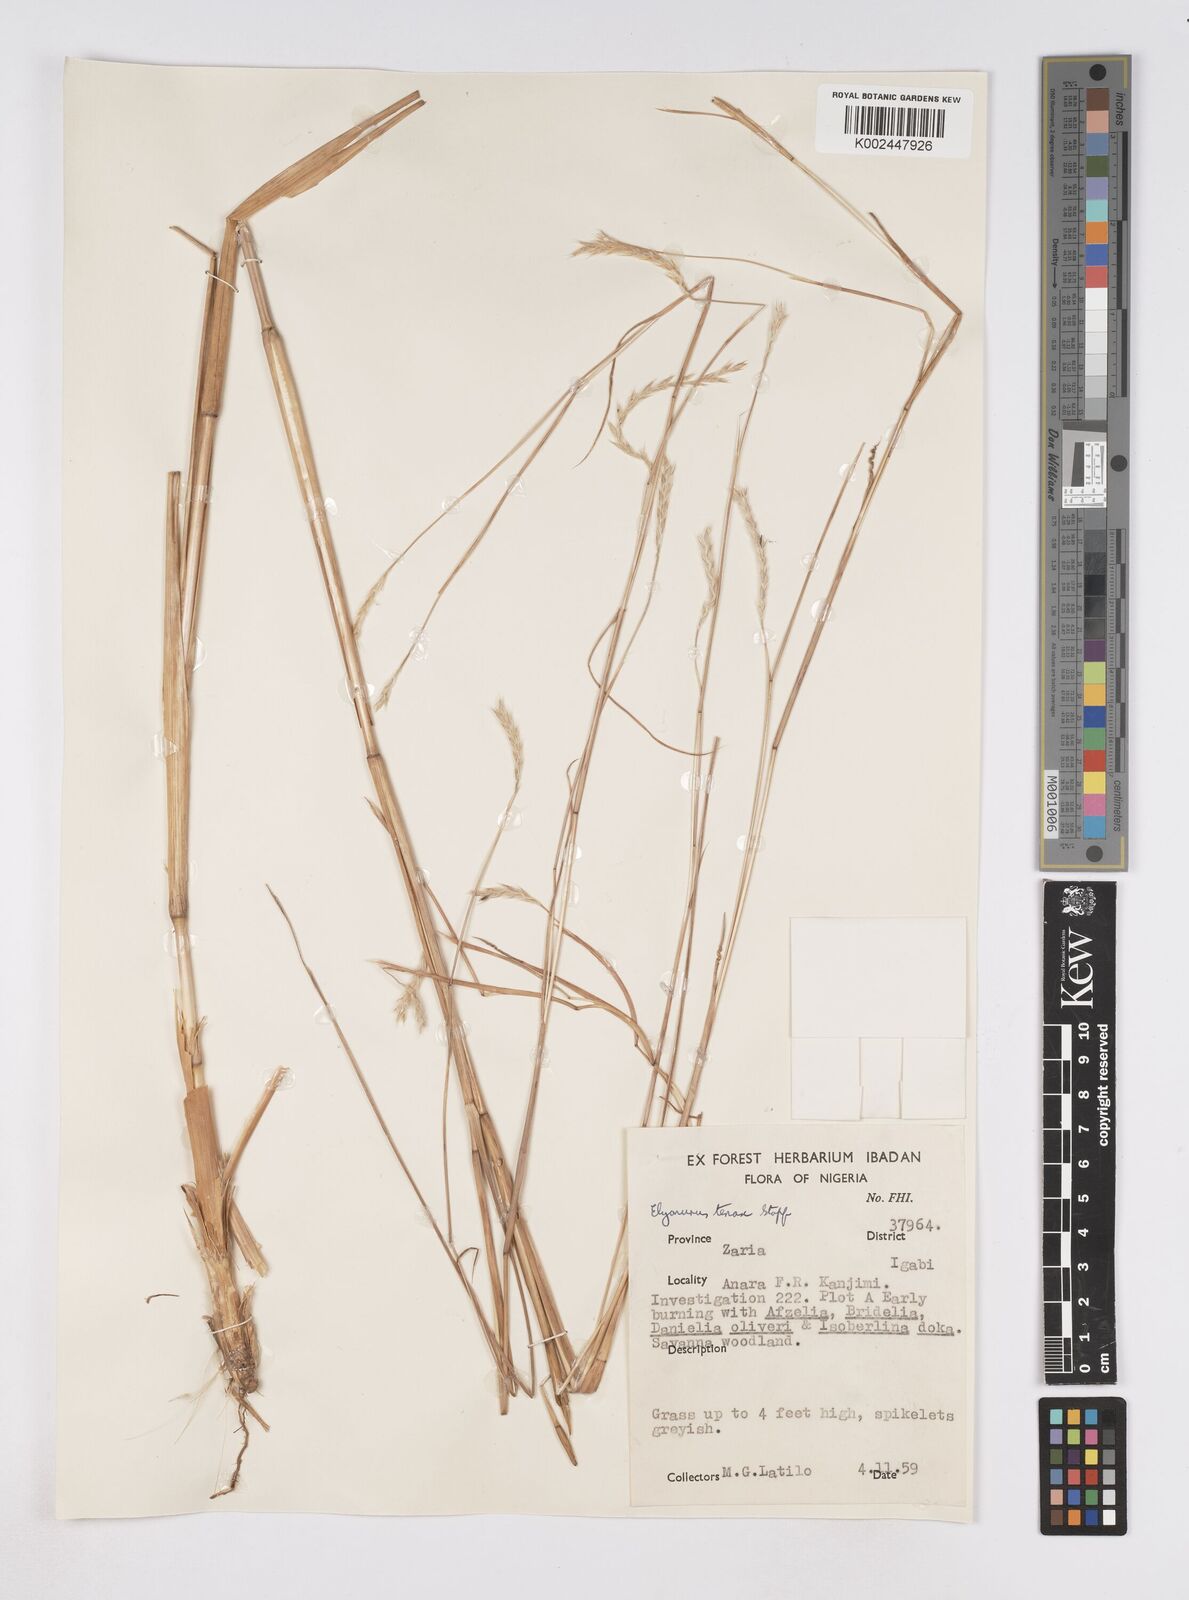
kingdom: Plantae
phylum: Tracheophyta
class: Liliopsida
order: Poales
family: Poaceae
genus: Elionurus
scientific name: Elionurus
